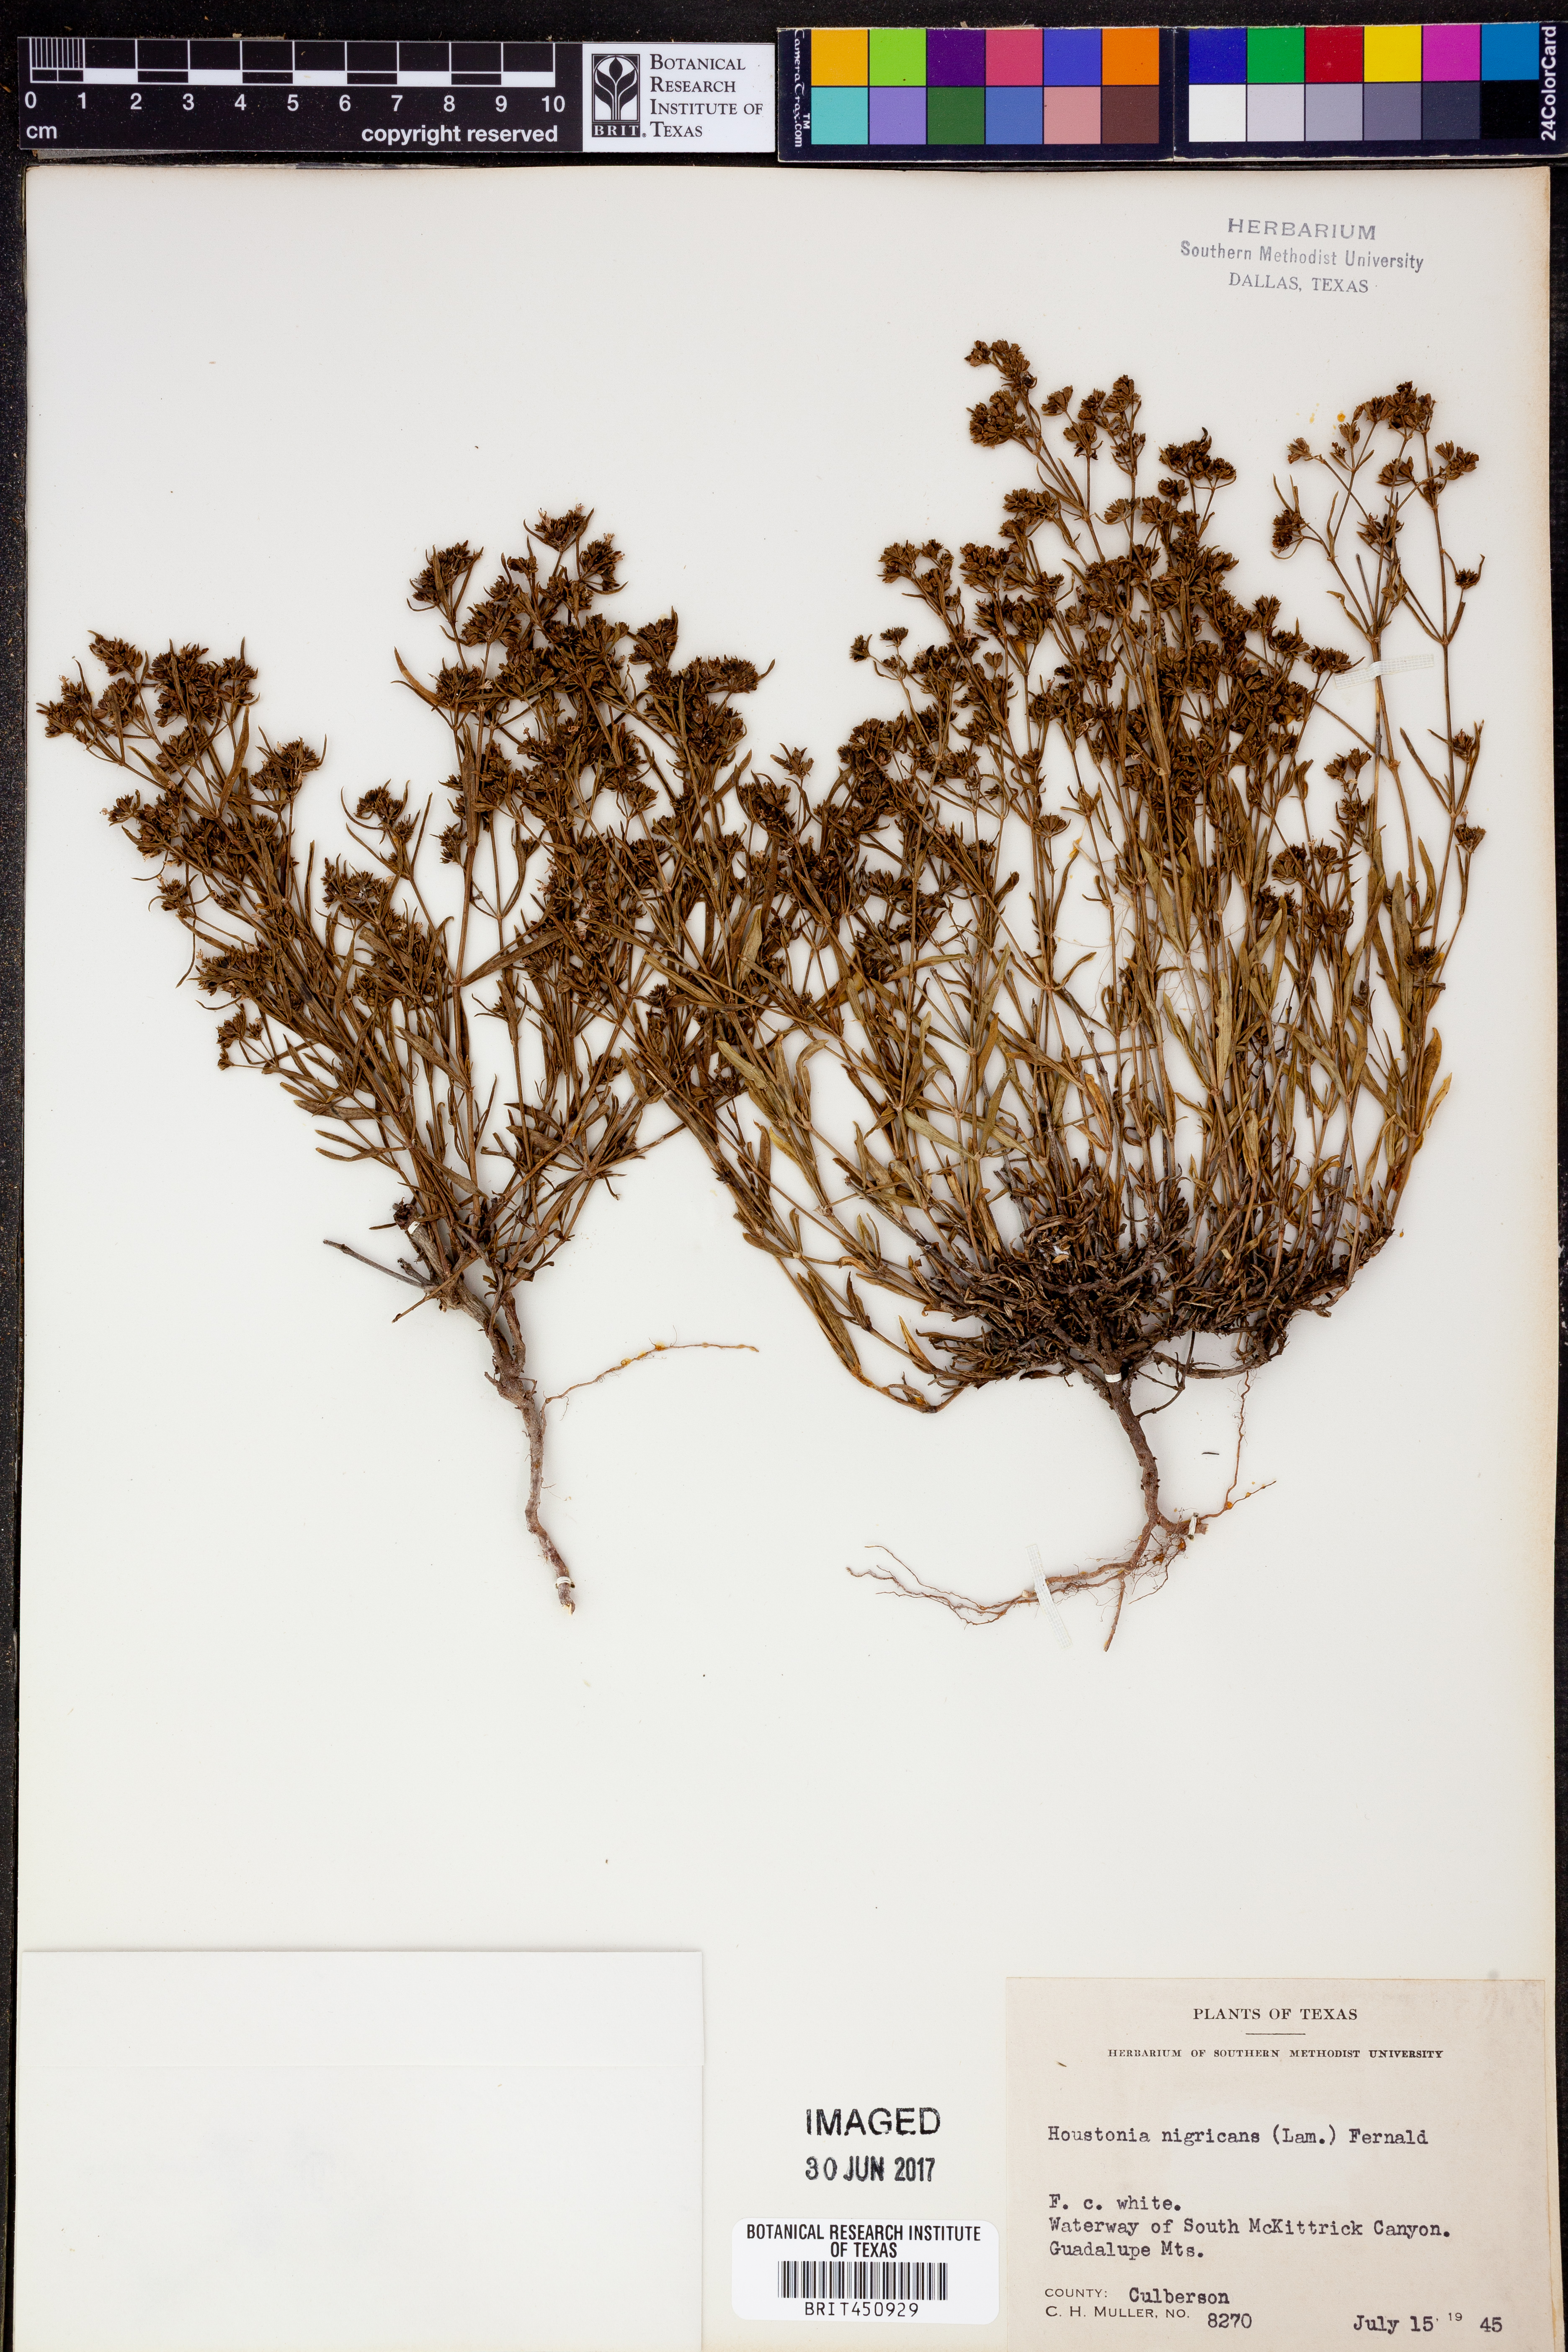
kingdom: Plantae
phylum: Tracheophyta
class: Magnoliopsida
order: Gentianales
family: Rubiaceae
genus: Stenaria
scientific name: Stenaria nigricans
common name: Diamondflowers
